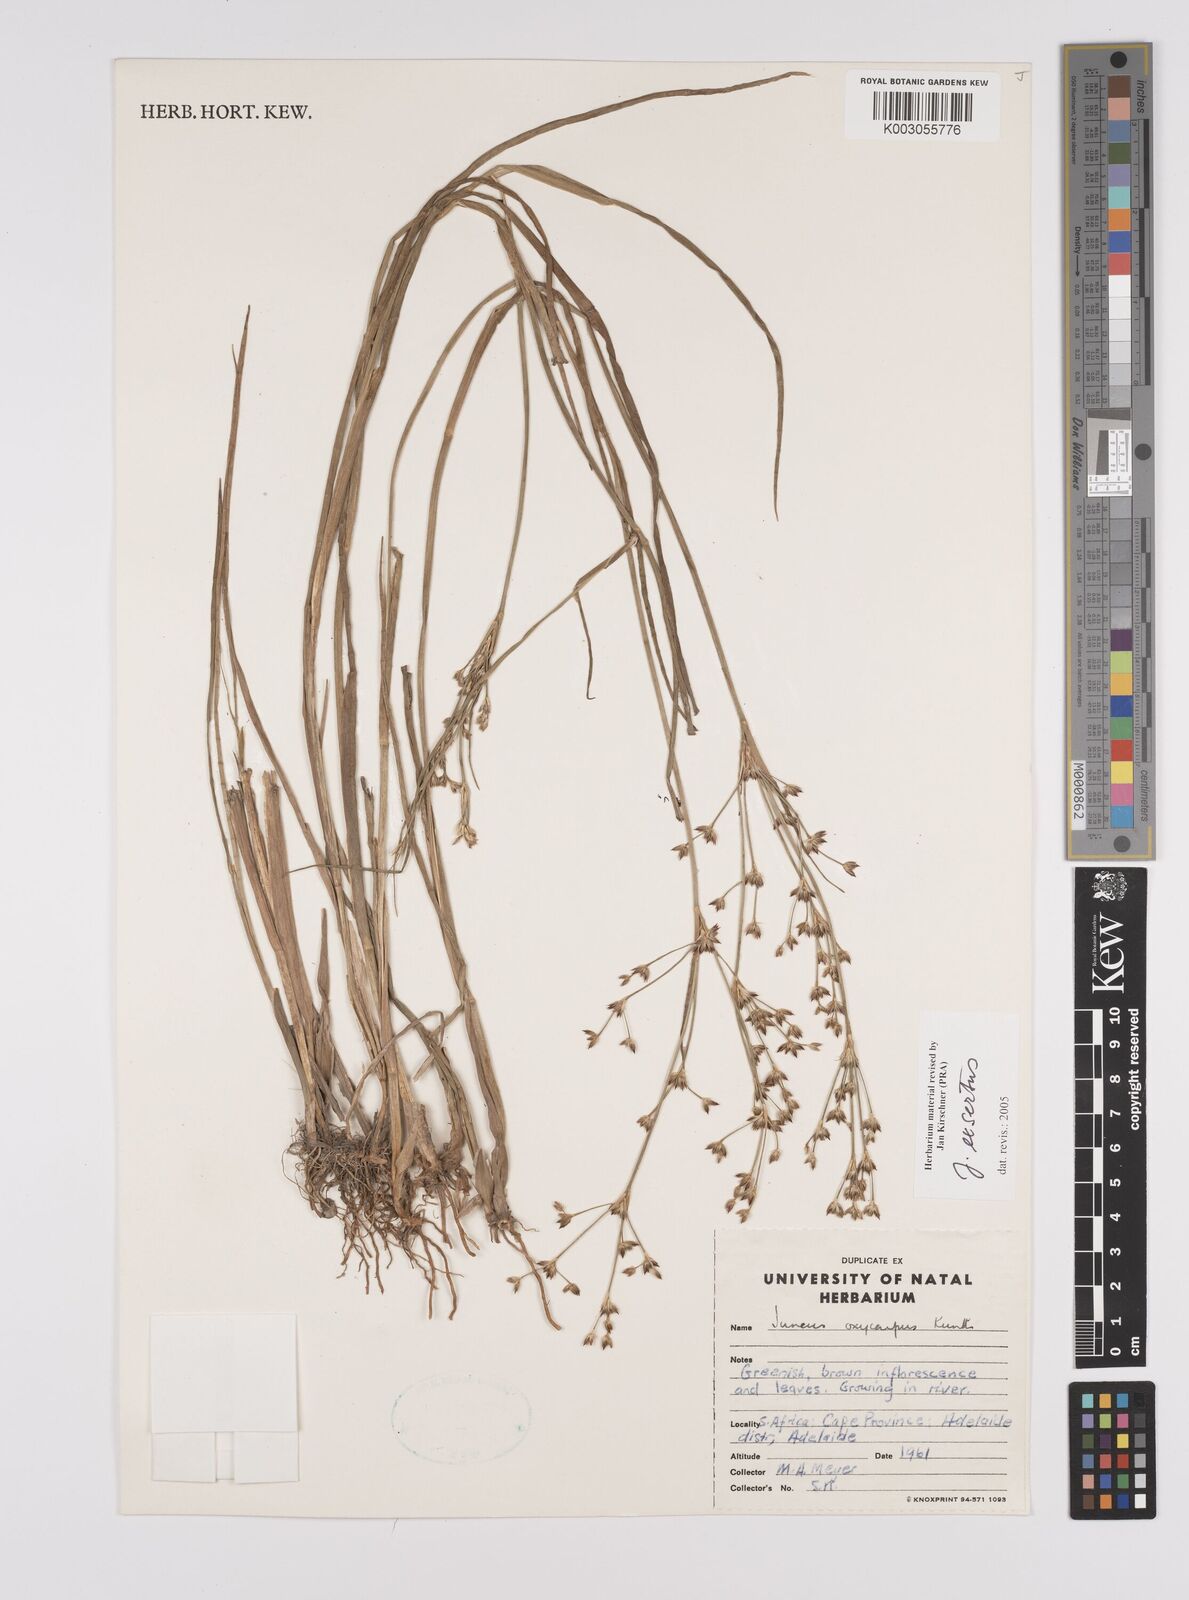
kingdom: Plantae
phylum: Tracheophyta
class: Liliopsida
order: Poales
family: Juncaceae
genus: Juncus
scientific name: Juncus exsertus
